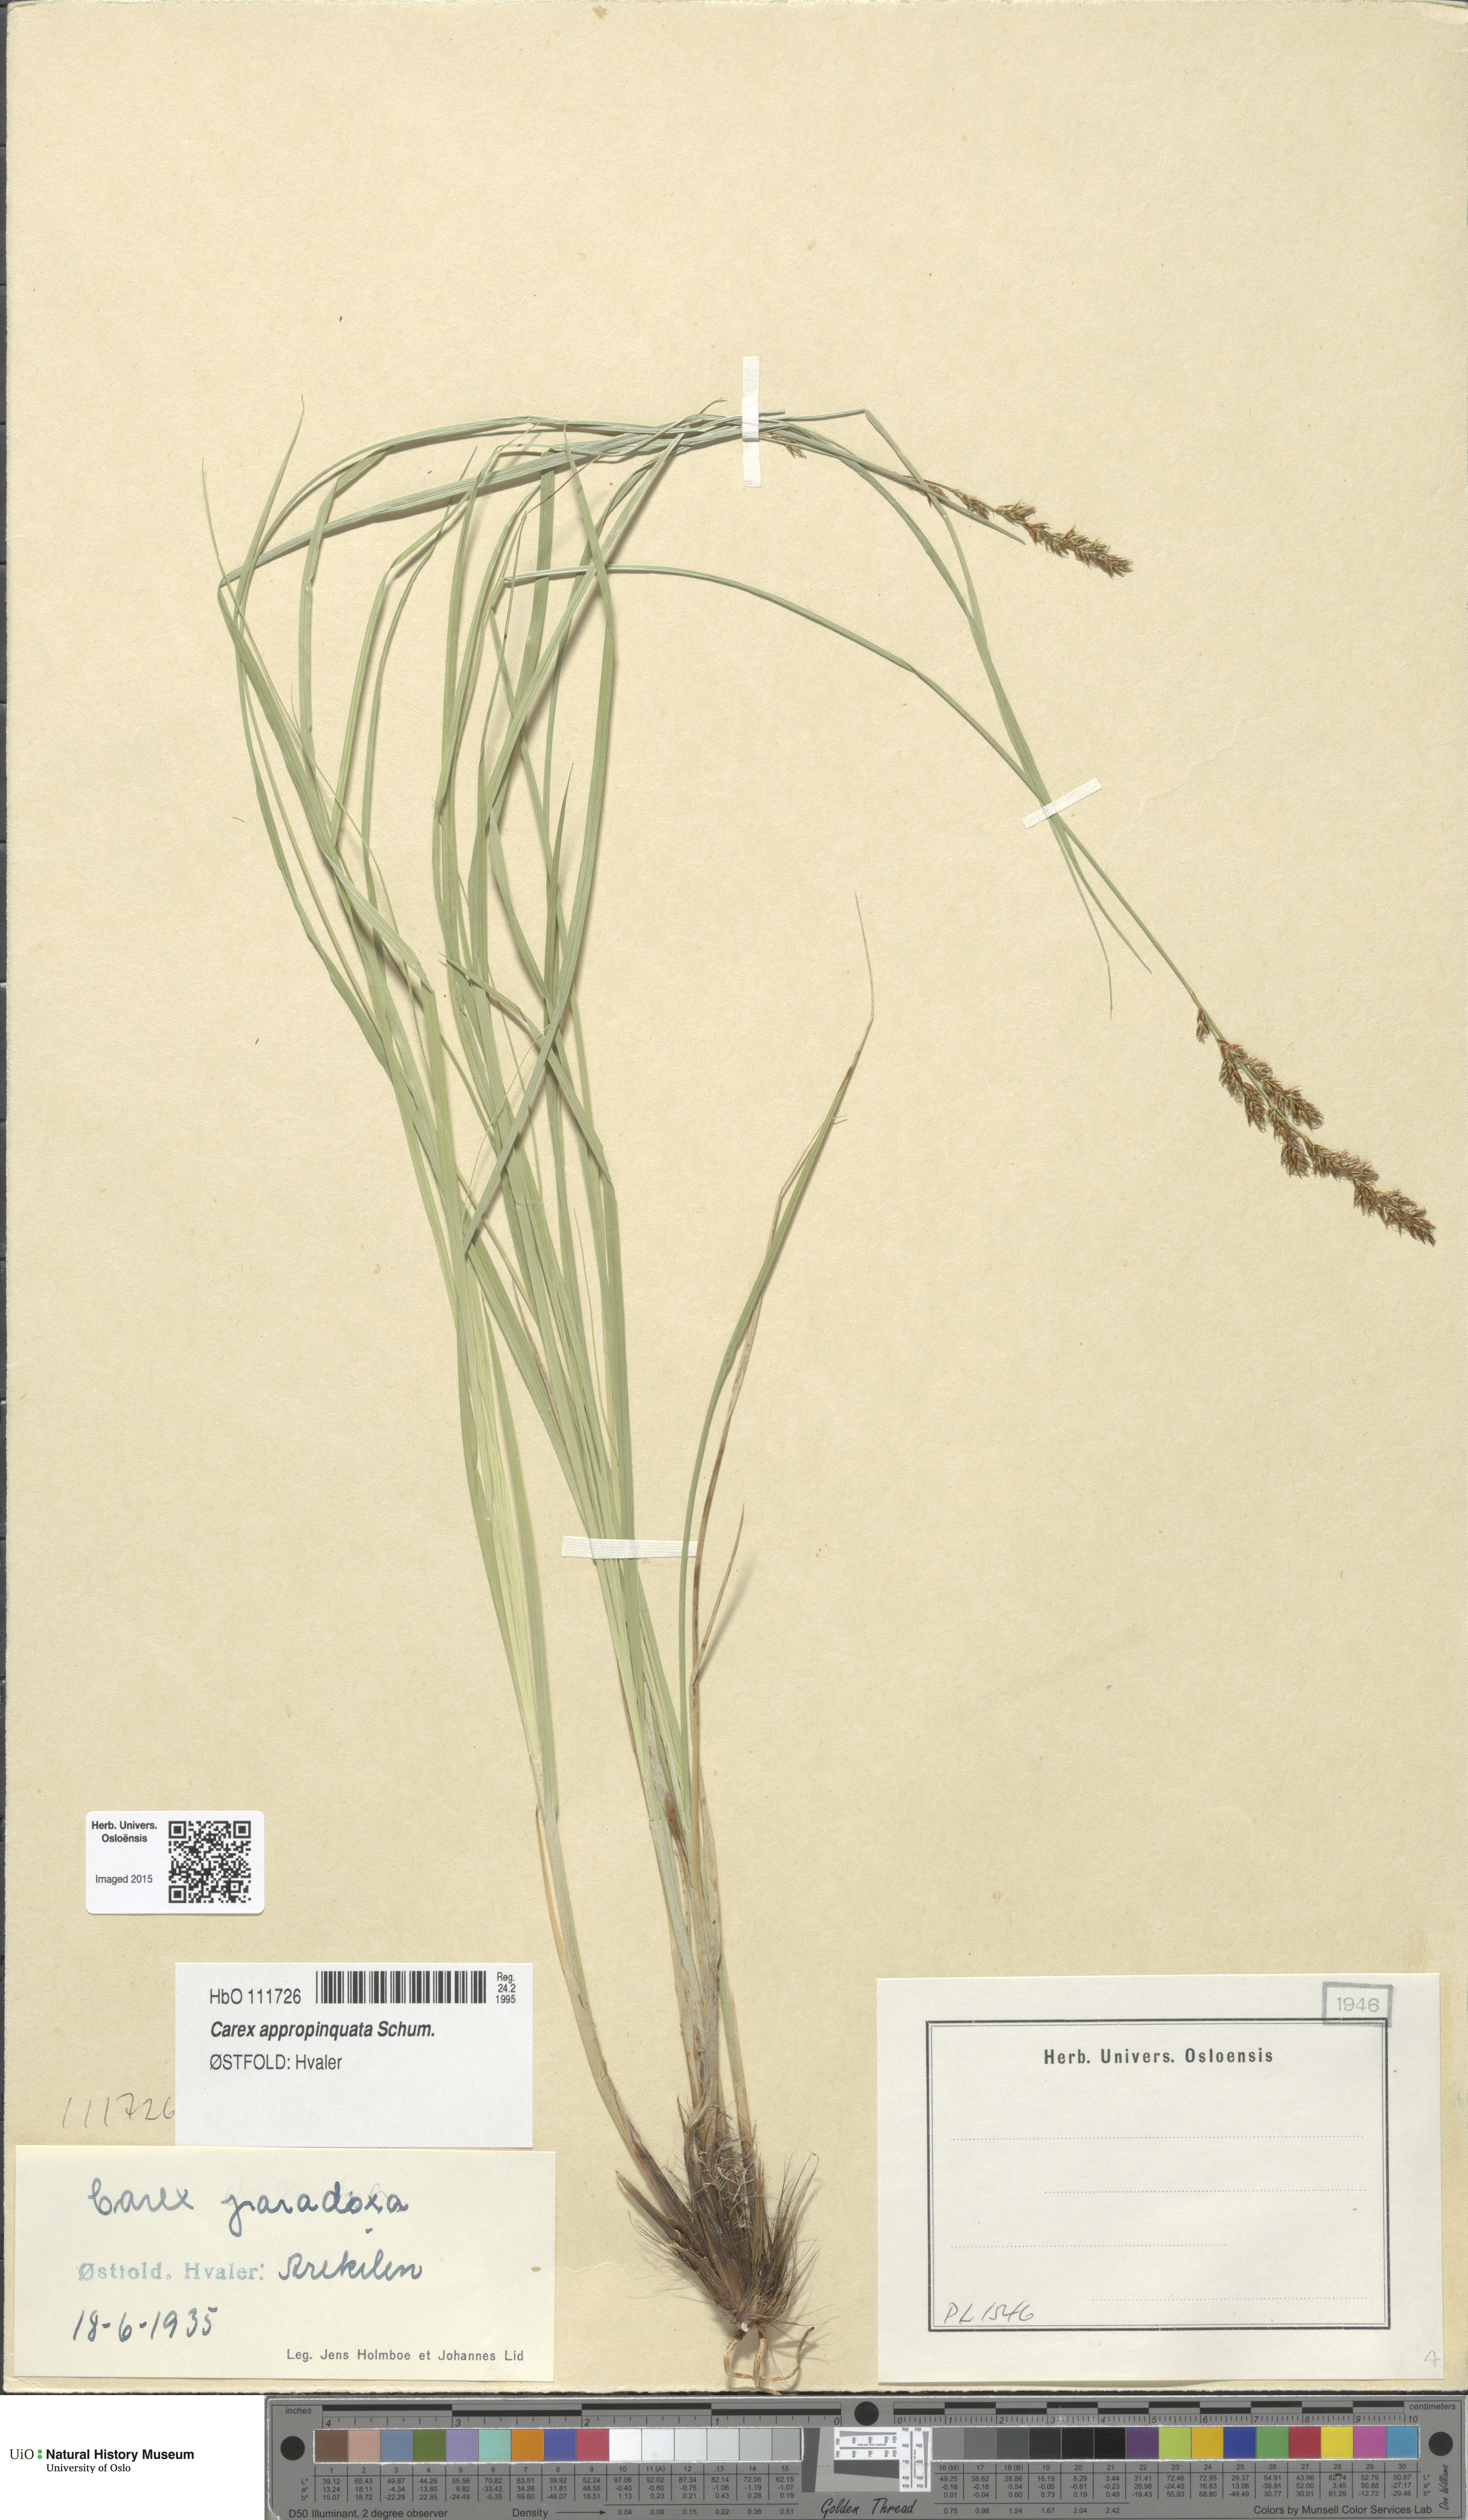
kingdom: Plantae
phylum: Tracheophyta
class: Liliopsida
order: Poales
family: Cyperaceae
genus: Carex
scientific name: Carex appropinquata
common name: Fibrous tussock-sedge
